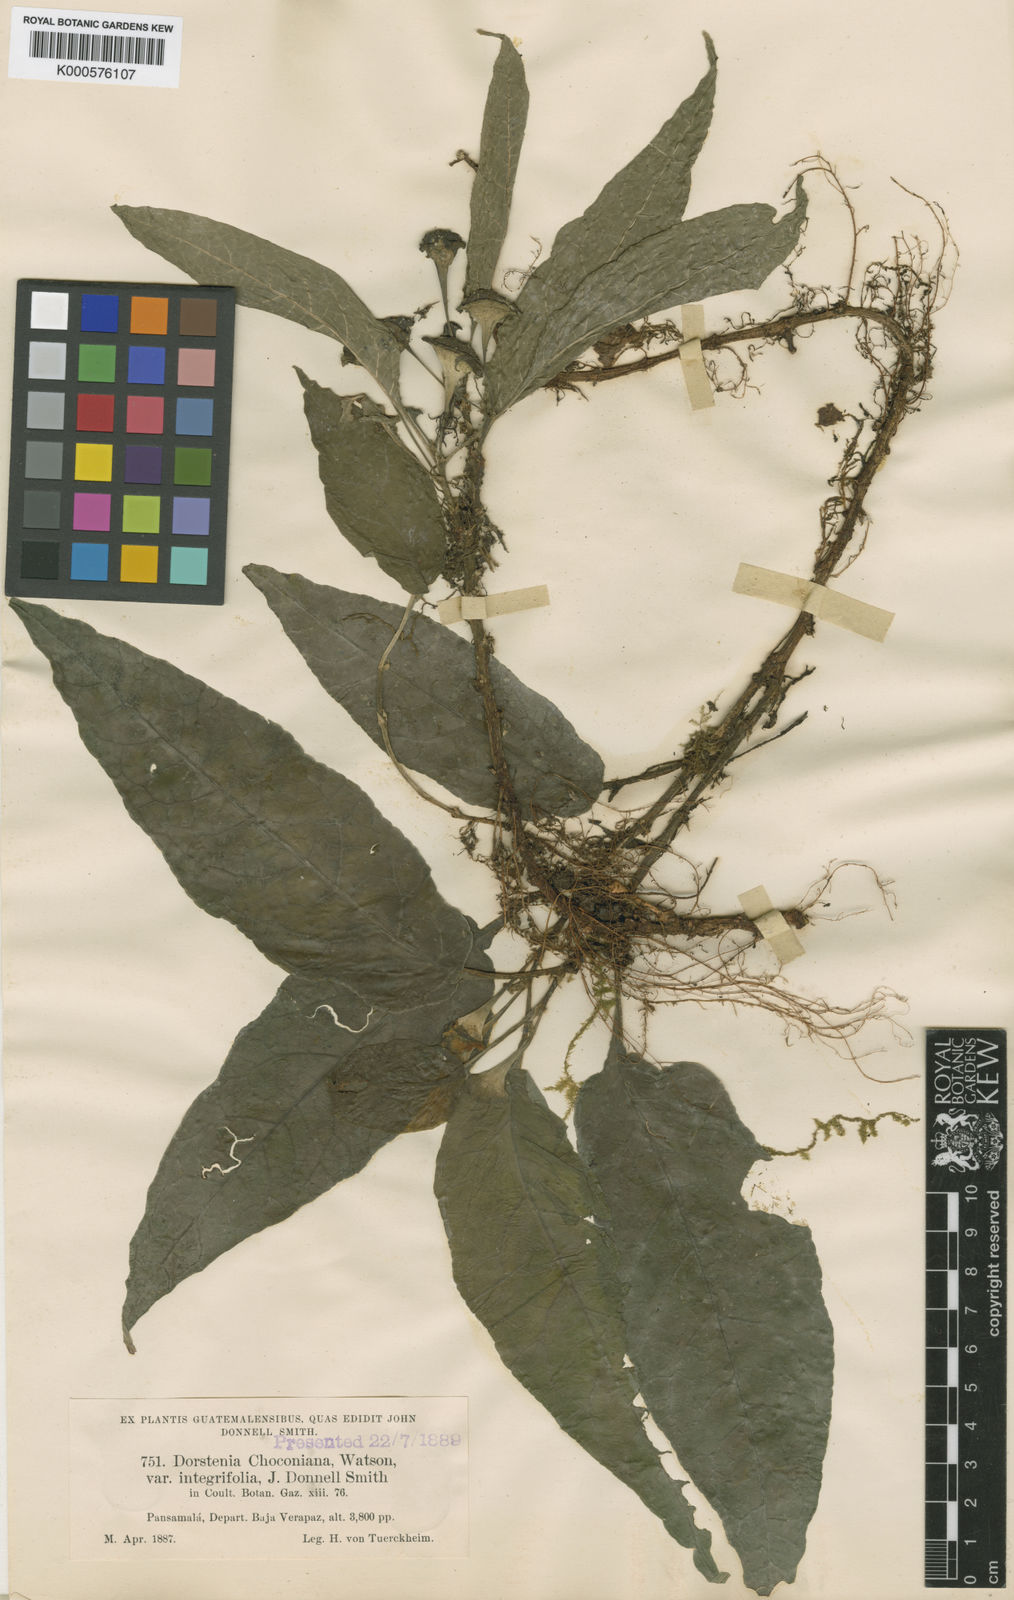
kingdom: Plantae
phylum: Tracheophyta
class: Magnoliopsida
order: Rosales
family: Moraceae
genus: Dorstenia
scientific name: Dorstenia choconiana
